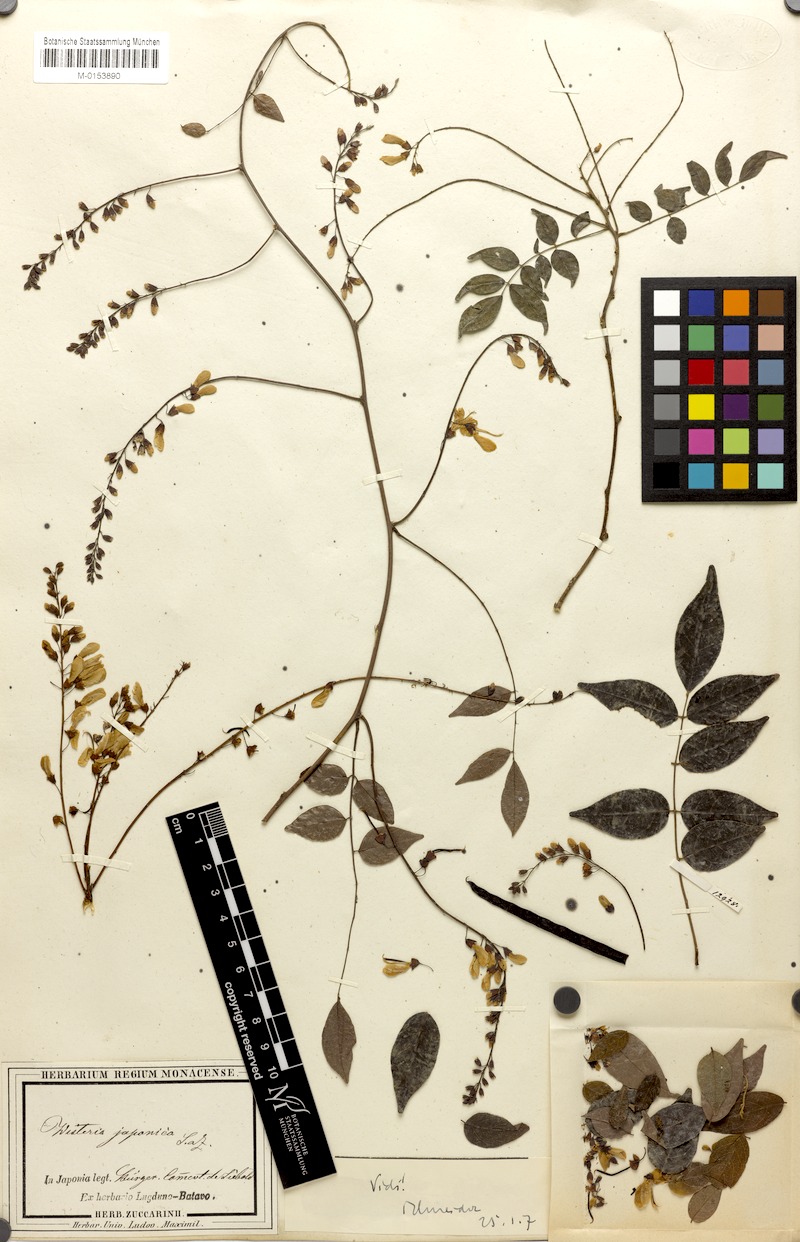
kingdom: Plantae
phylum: Tracheophyta
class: Magnoliopsida
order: Fabales
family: Fabaceae
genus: Wisteriopsis
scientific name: Wisteriopsis japonica
